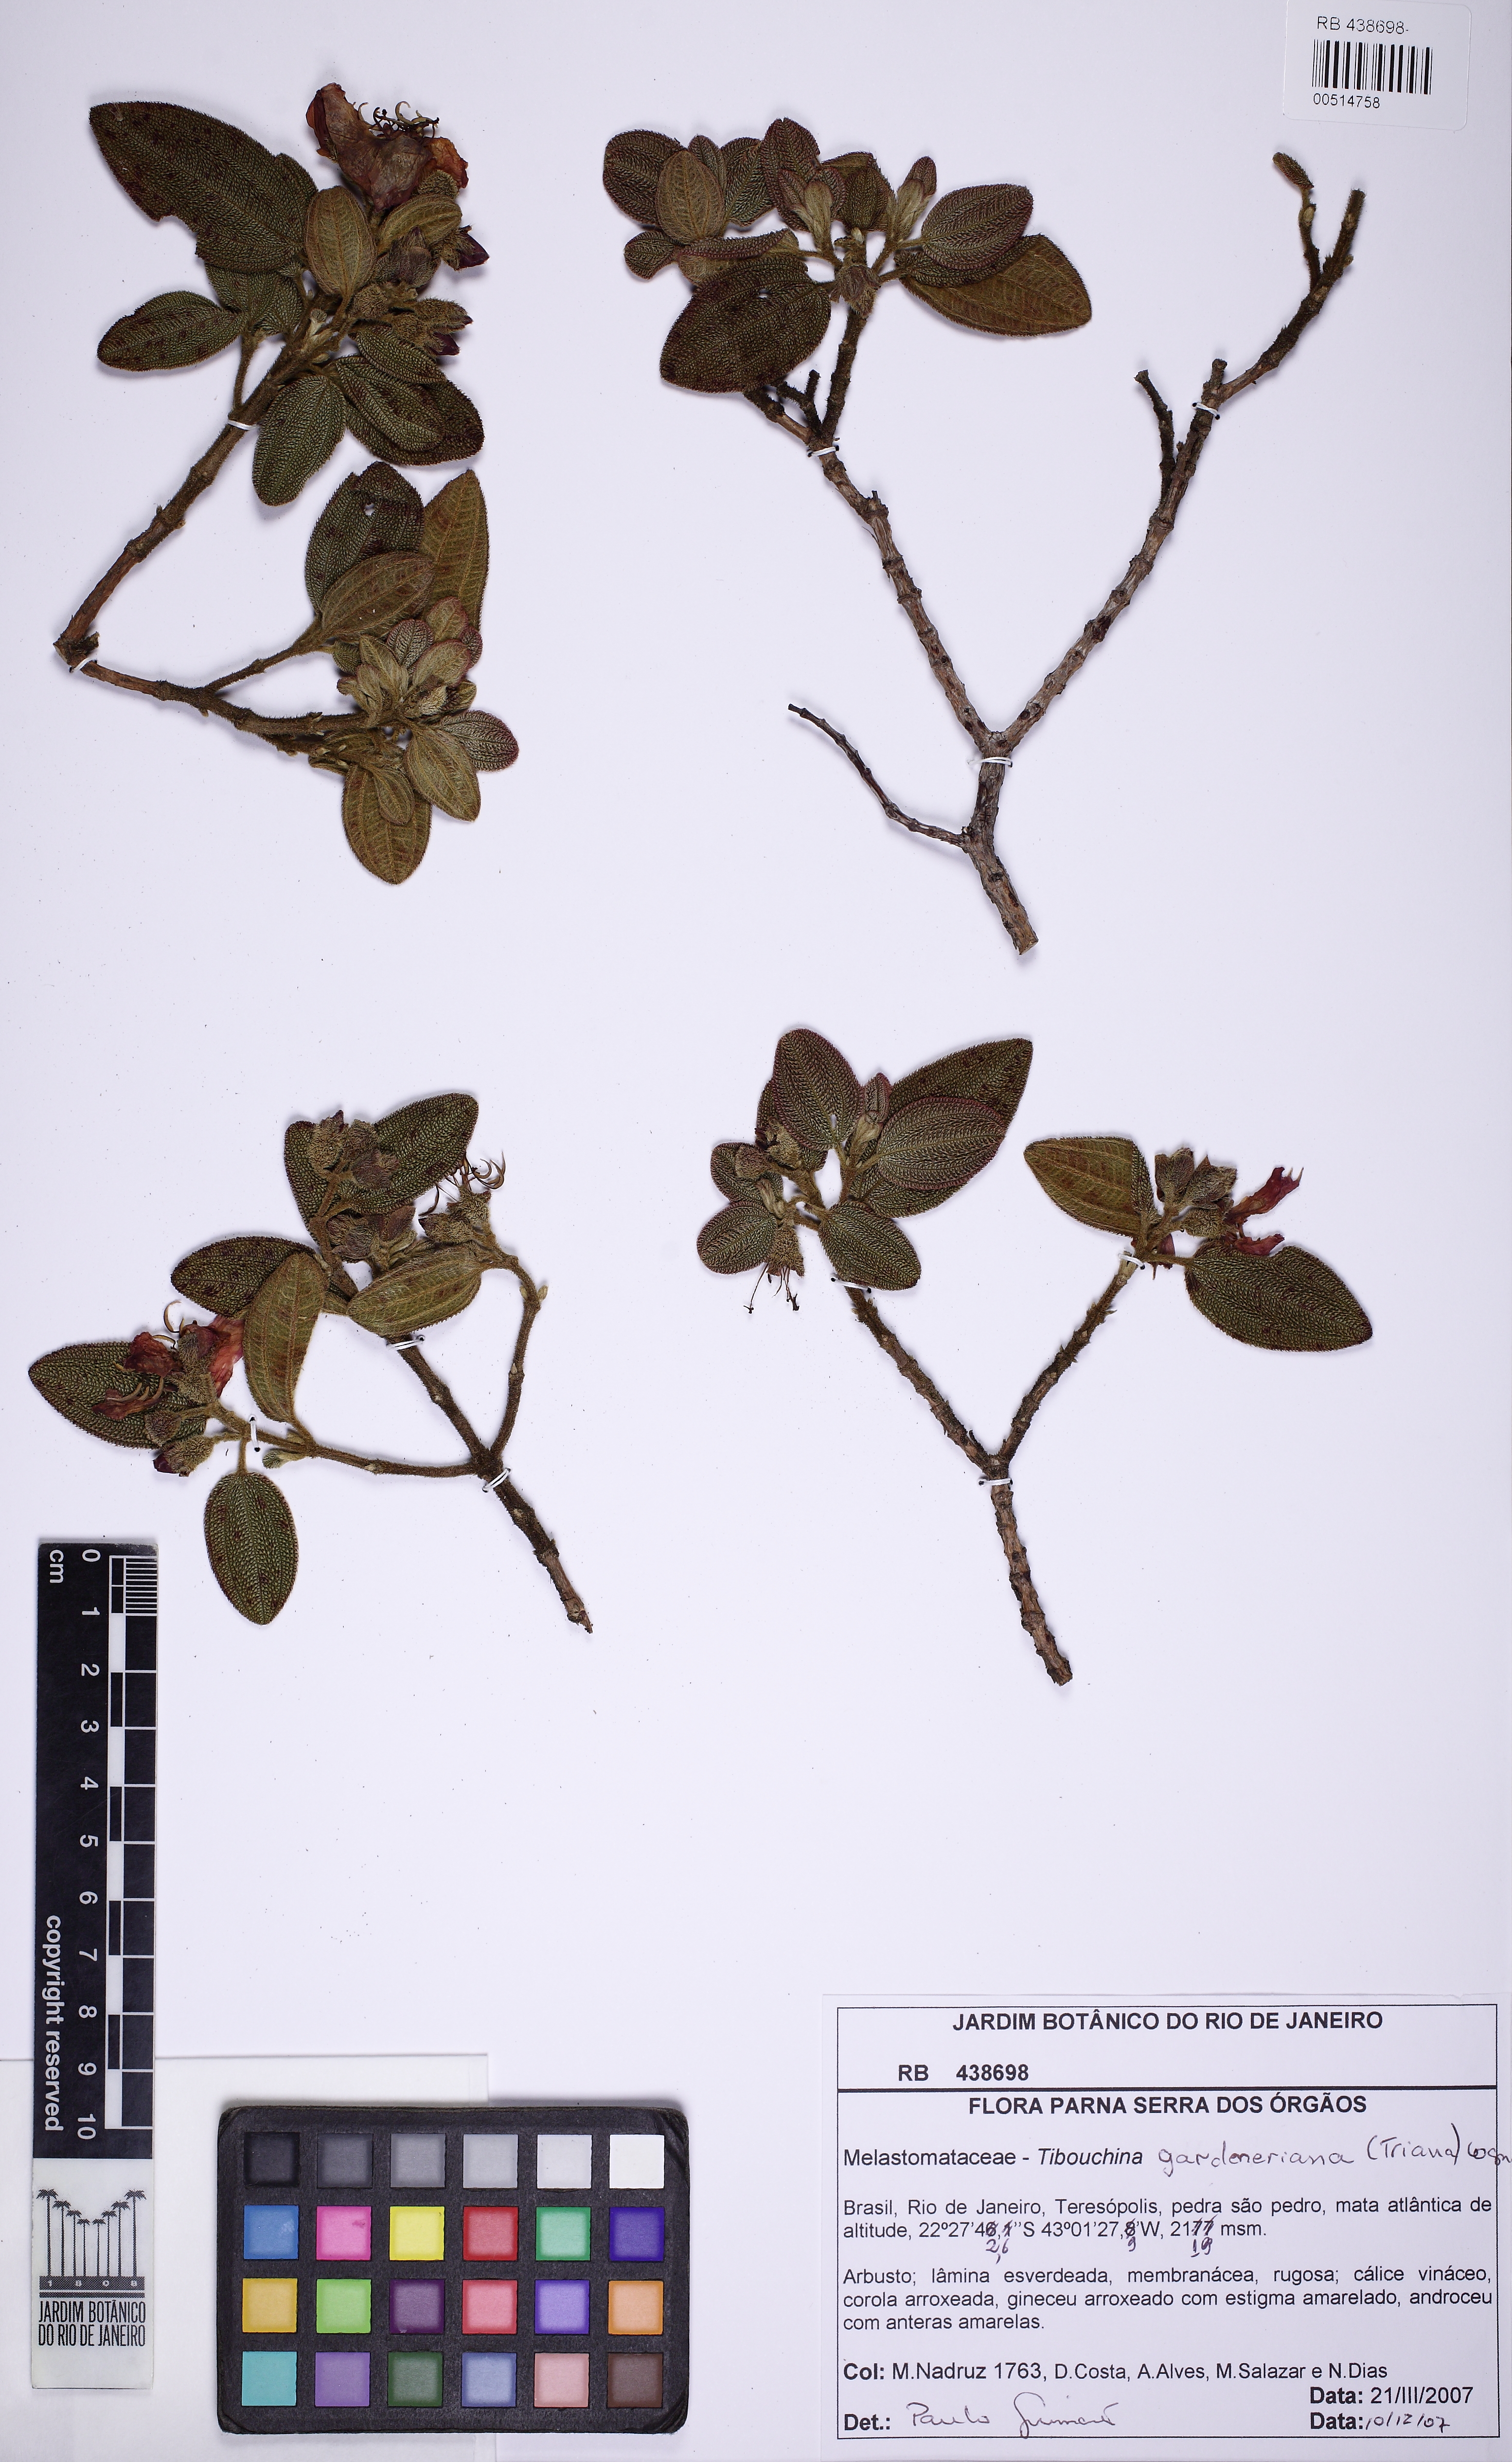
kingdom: Plantae
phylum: Tracheophyta
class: Magnoliopsida
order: Myrtales
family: Melastomataceae
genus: Pleroma
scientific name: Pleroma echinatum
